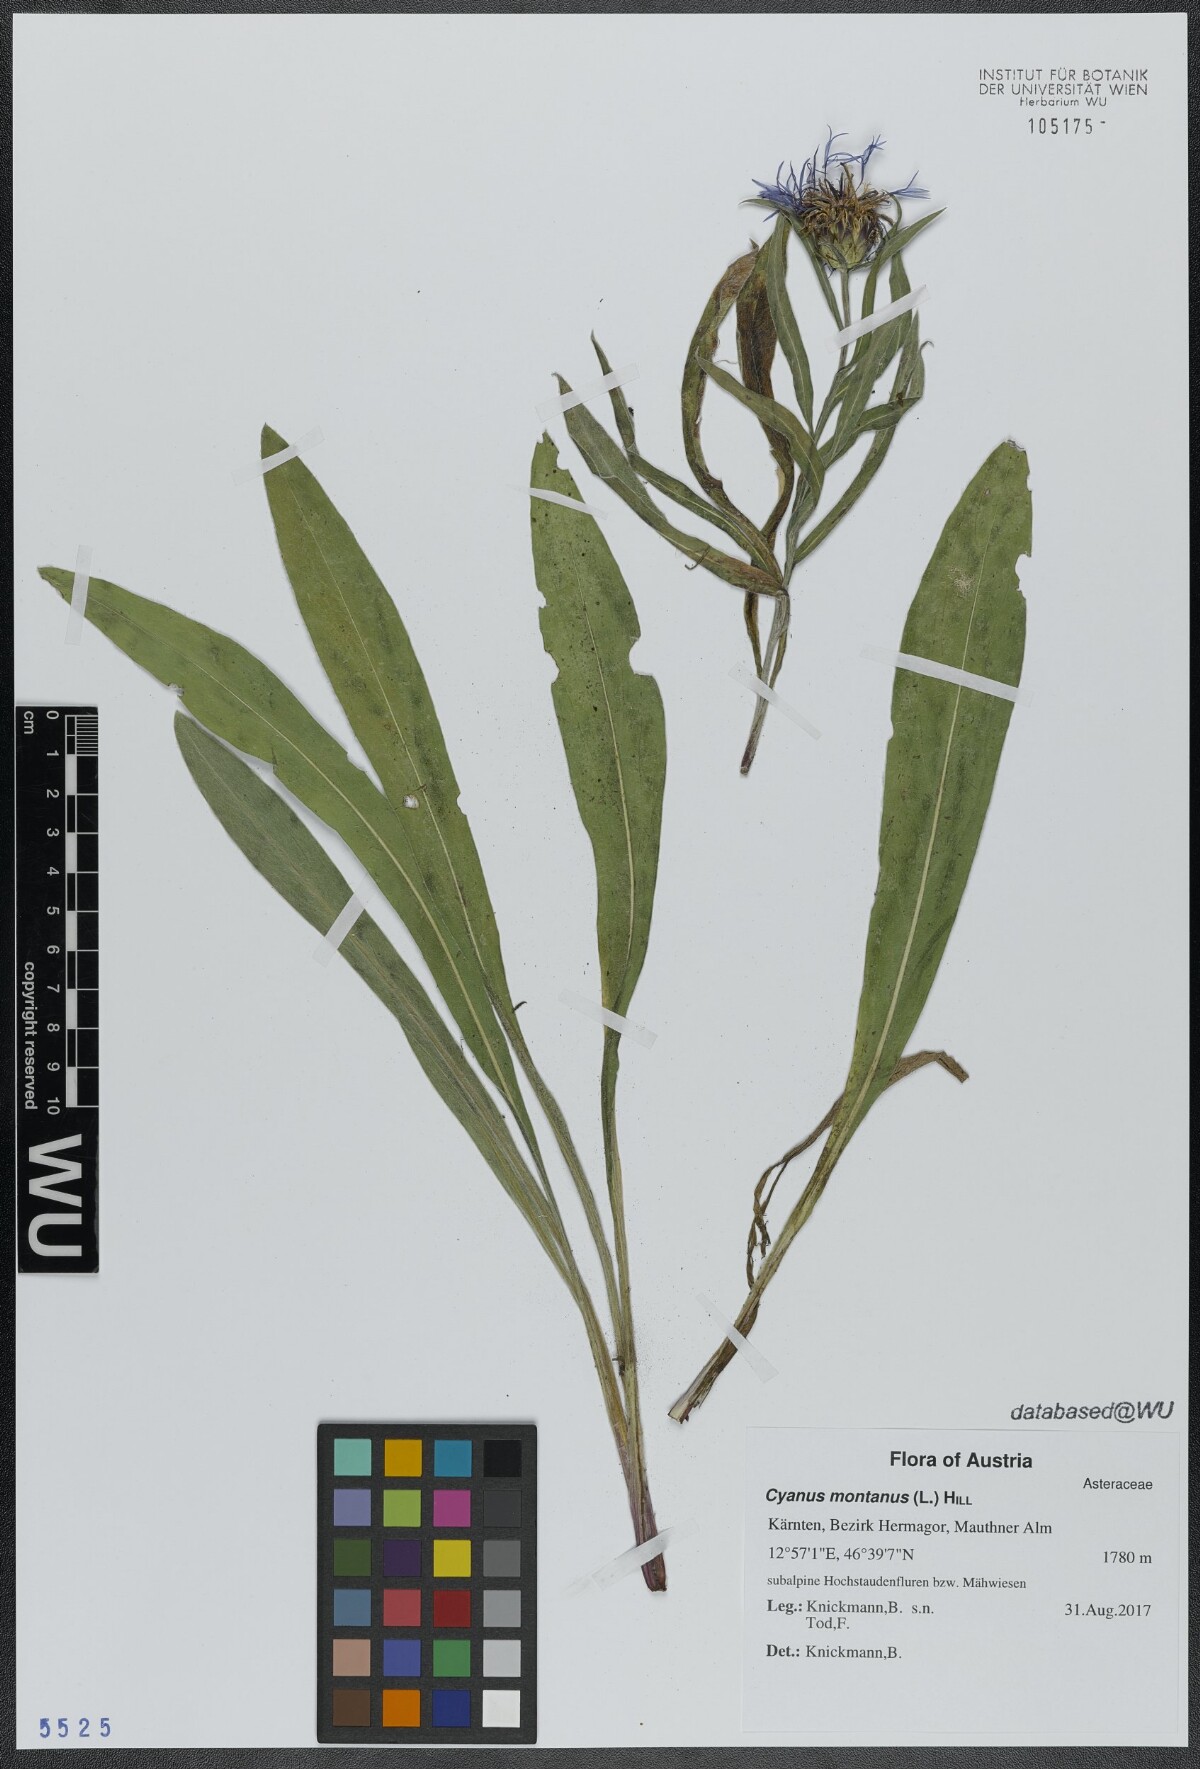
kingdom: Plantae
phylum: Tracheophyta
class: Magnoliopsida
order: Asterales
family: Asteraceae
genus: Centaurea
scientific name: Centaurea montana
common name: Perennial cornflower
